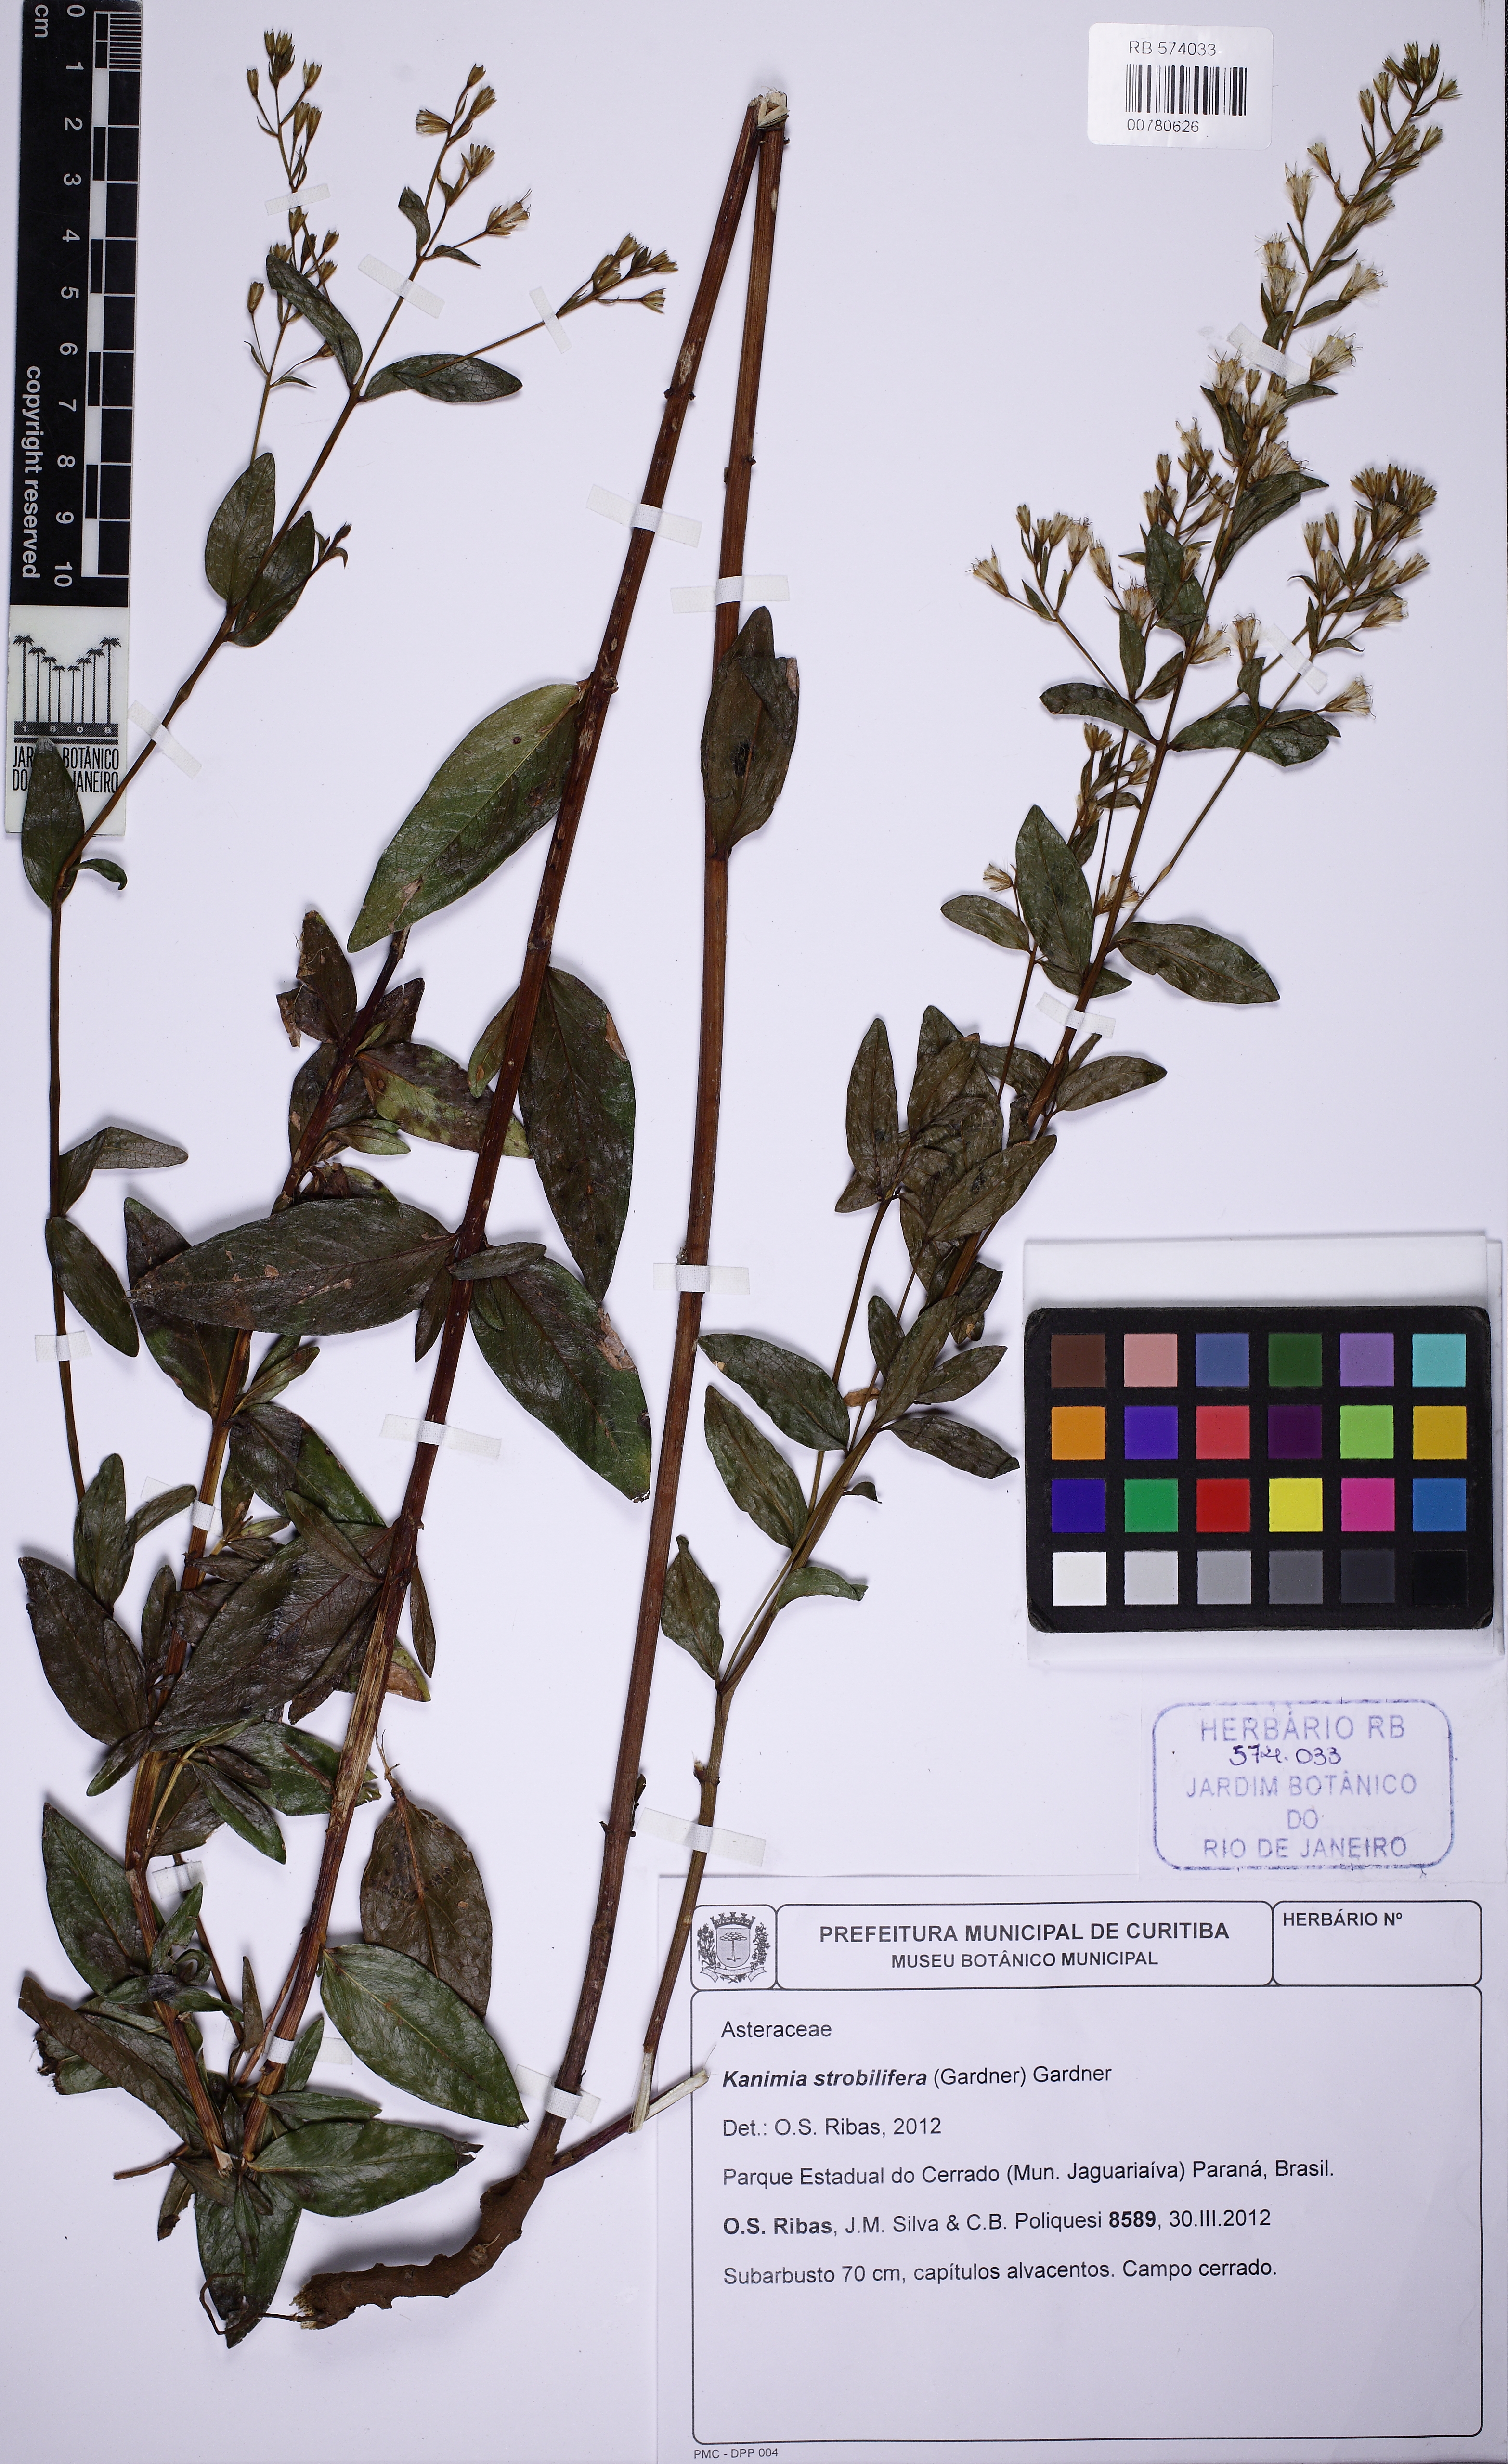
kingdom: Plantae
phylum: Tracheophyta
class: Magnoliopsida
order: Asterales
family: Asteraceae
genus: Mikania
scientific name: Mikania Kanimia strobilifera
